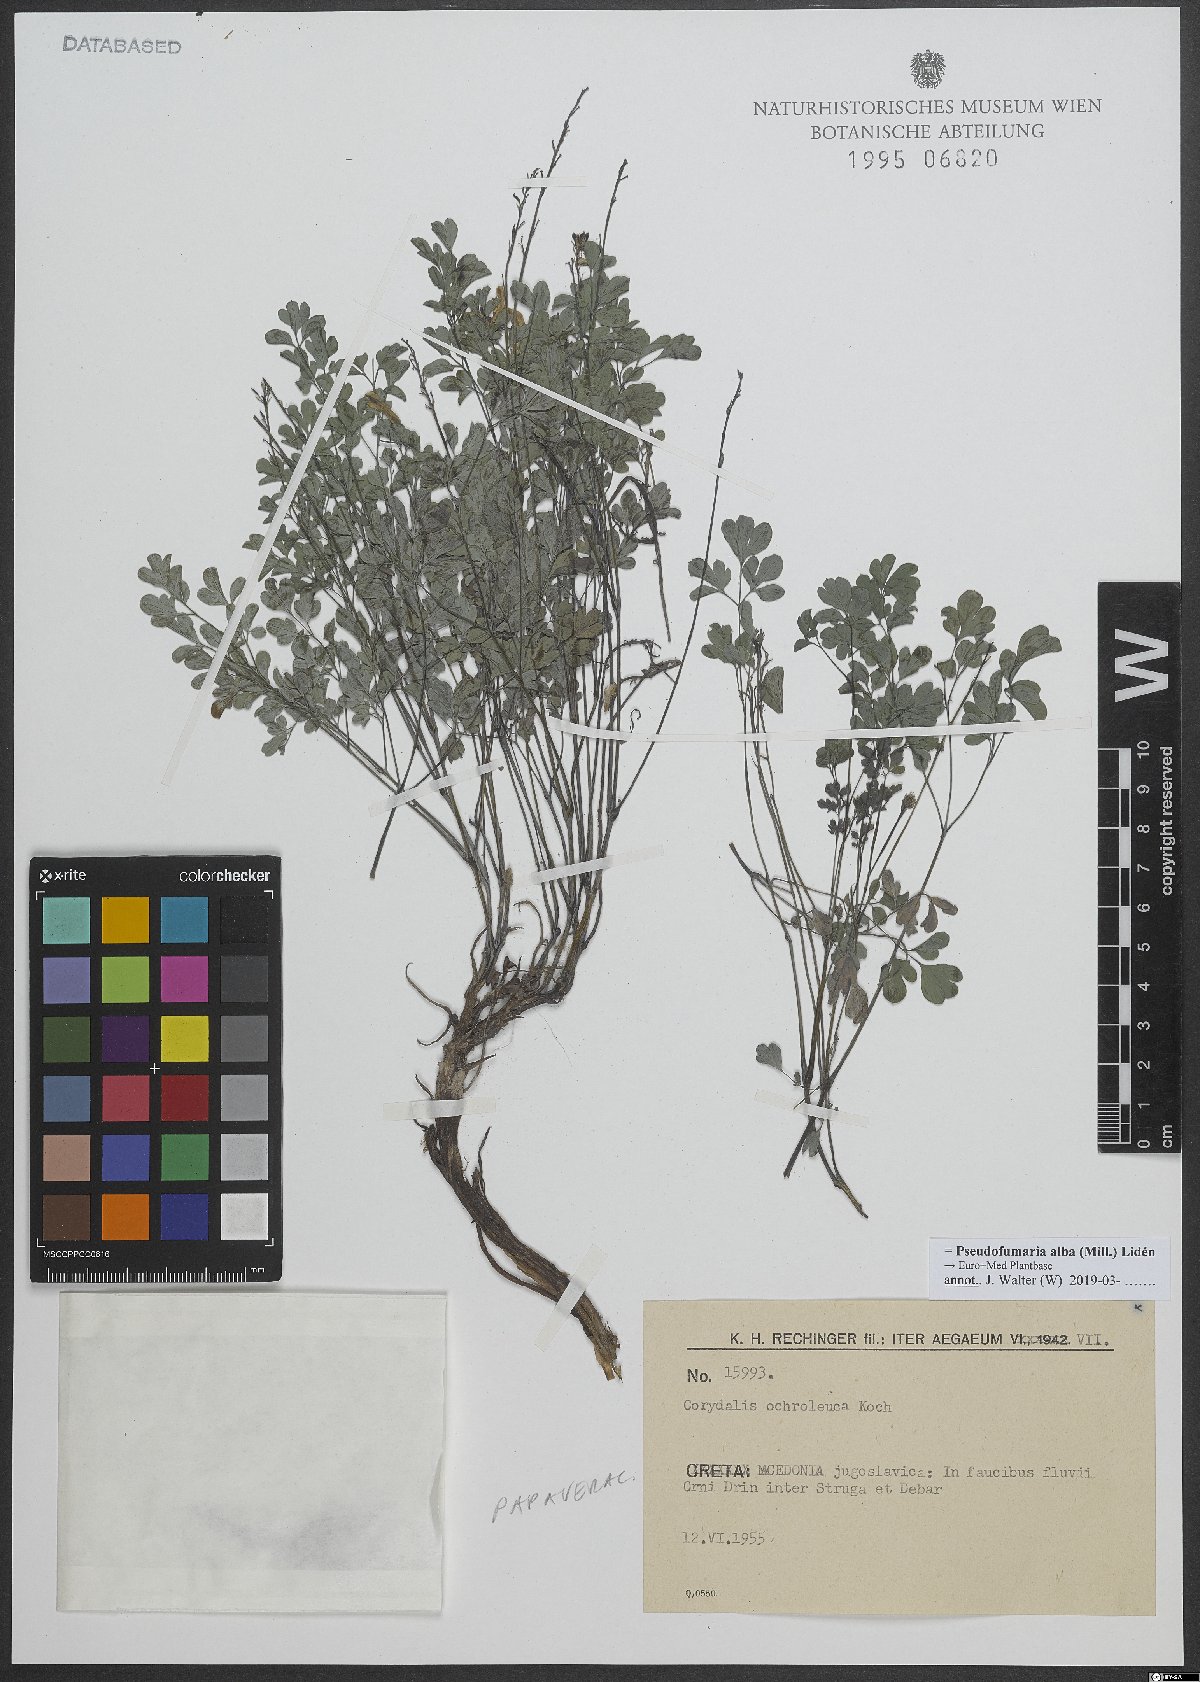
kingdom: Plantae
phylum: Tracheophyta
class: Magnoliopsida
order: Ranunculales
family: Papaveraceae
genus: Pseudofumaria
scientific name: Pseudofumaria alba
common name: Pale corydalis
